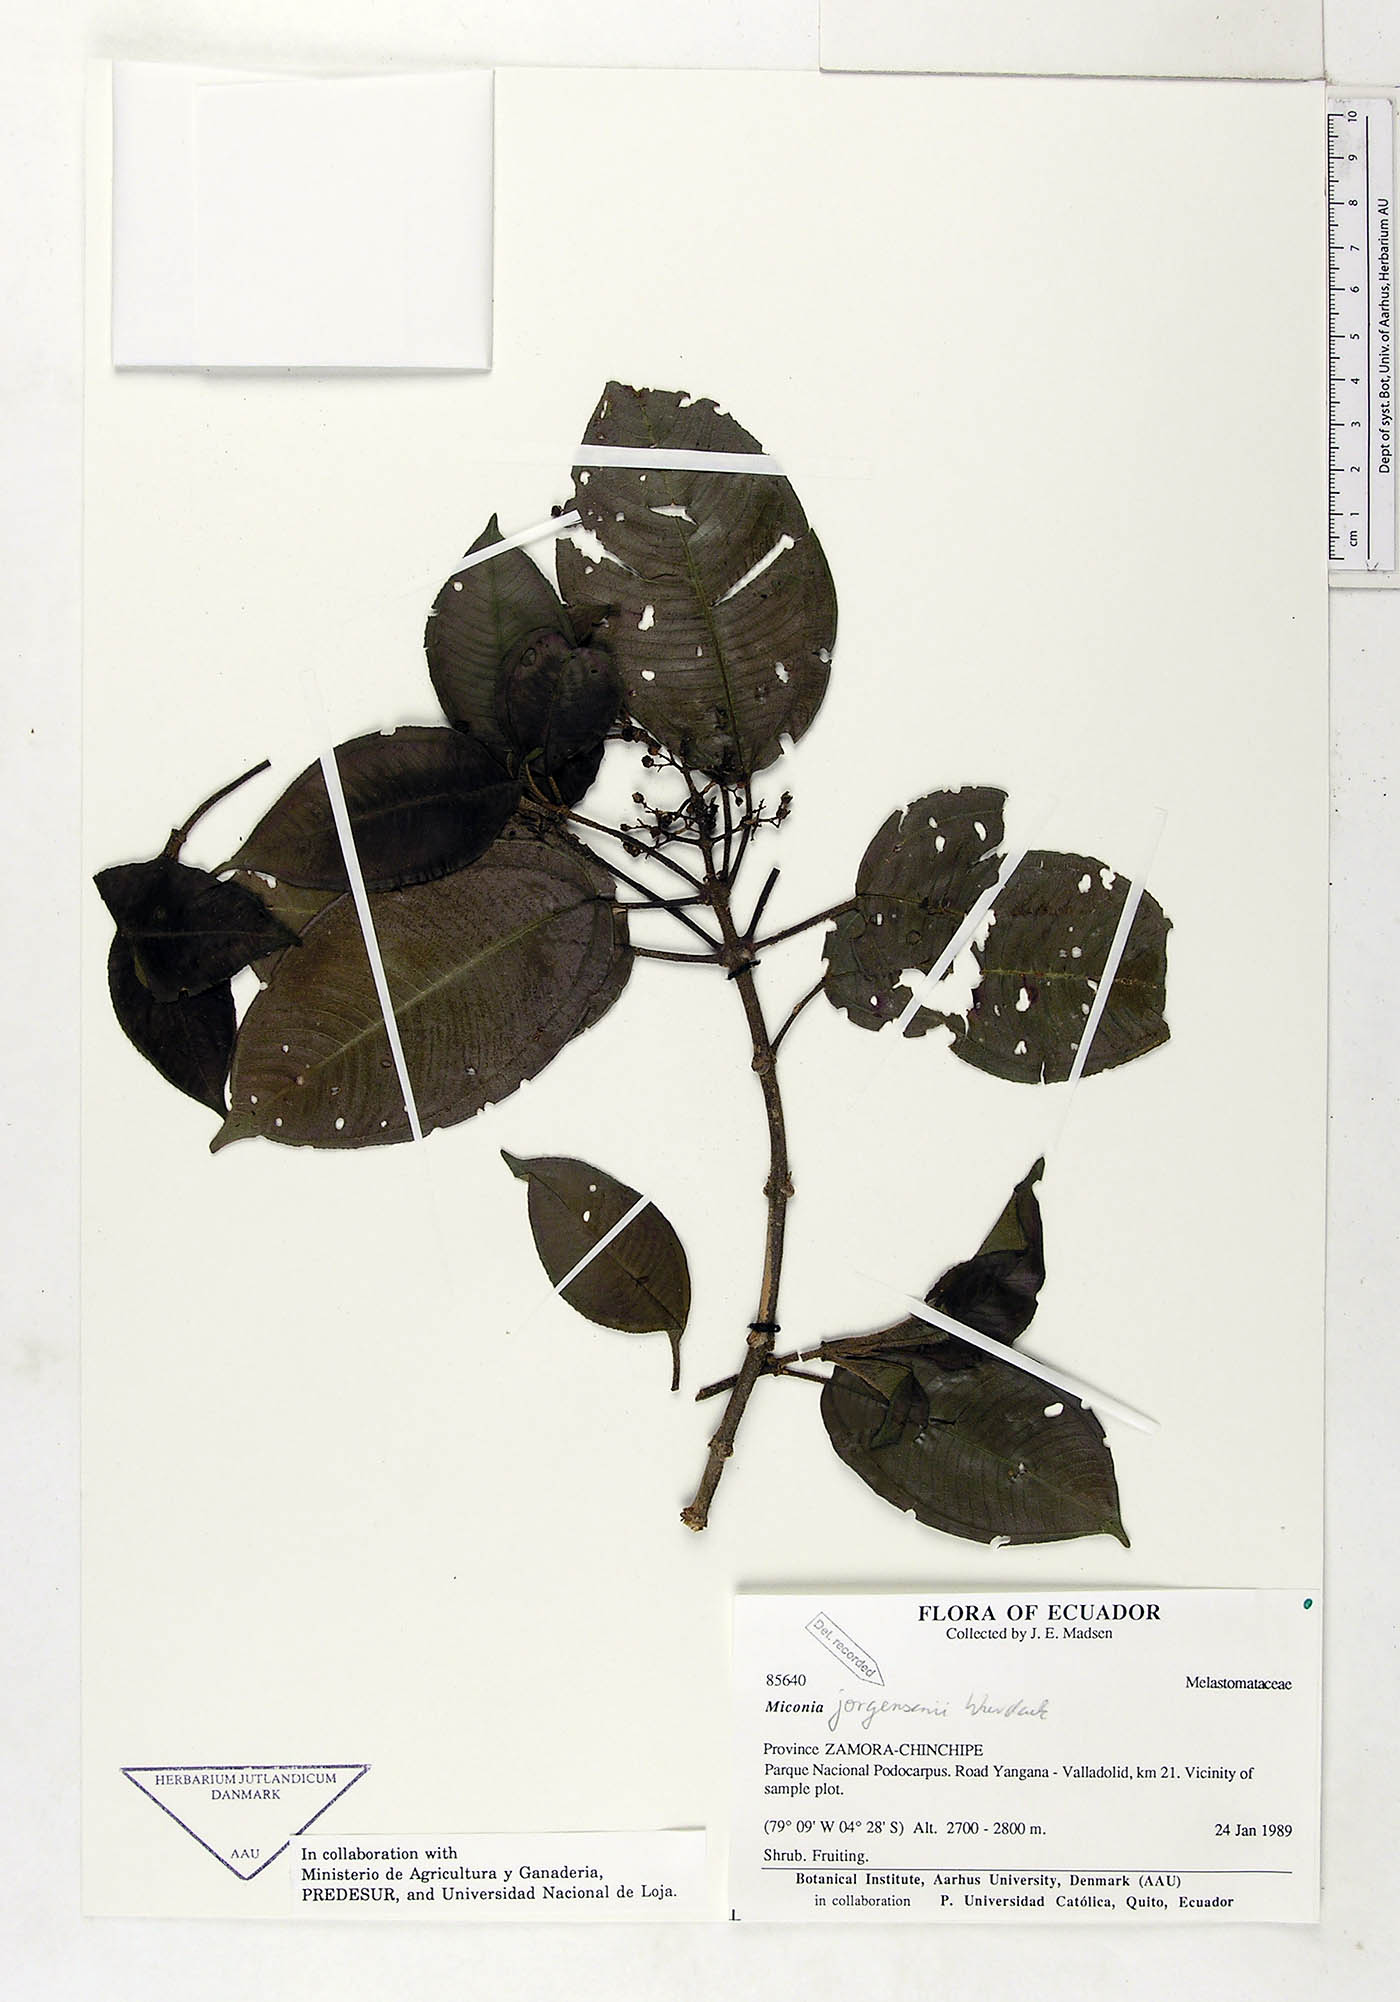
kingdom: Plantae
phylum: Tracheophyta
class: Magnoliopsida
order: Myrtales
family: Melastomataceae
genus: Miconia
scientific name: Miconia jorgensenii
